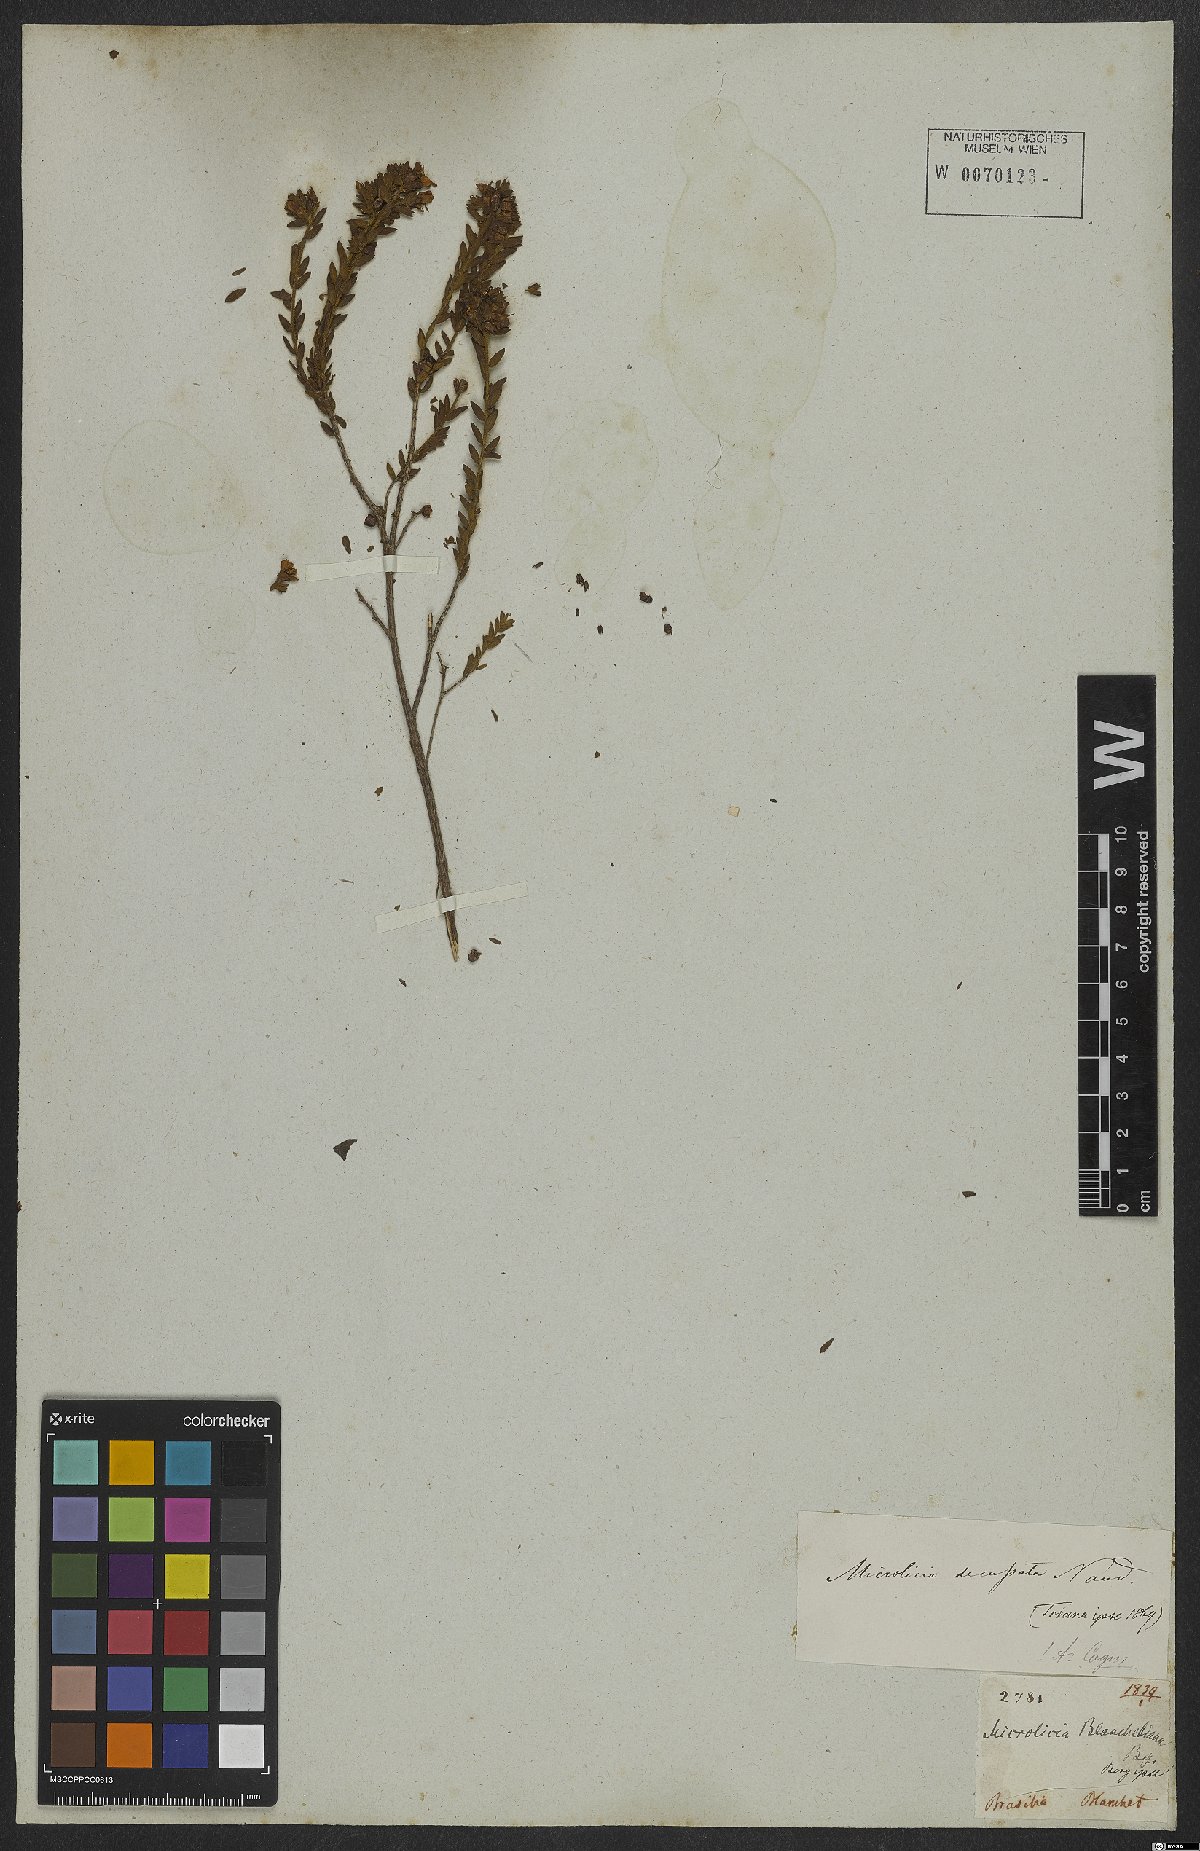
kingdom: Plantae
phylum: Tracheophyta
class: Magnoliopsida
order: Myrtales
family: Melastomataceae
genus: Microlicia
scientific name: Microlicia fasciculata
